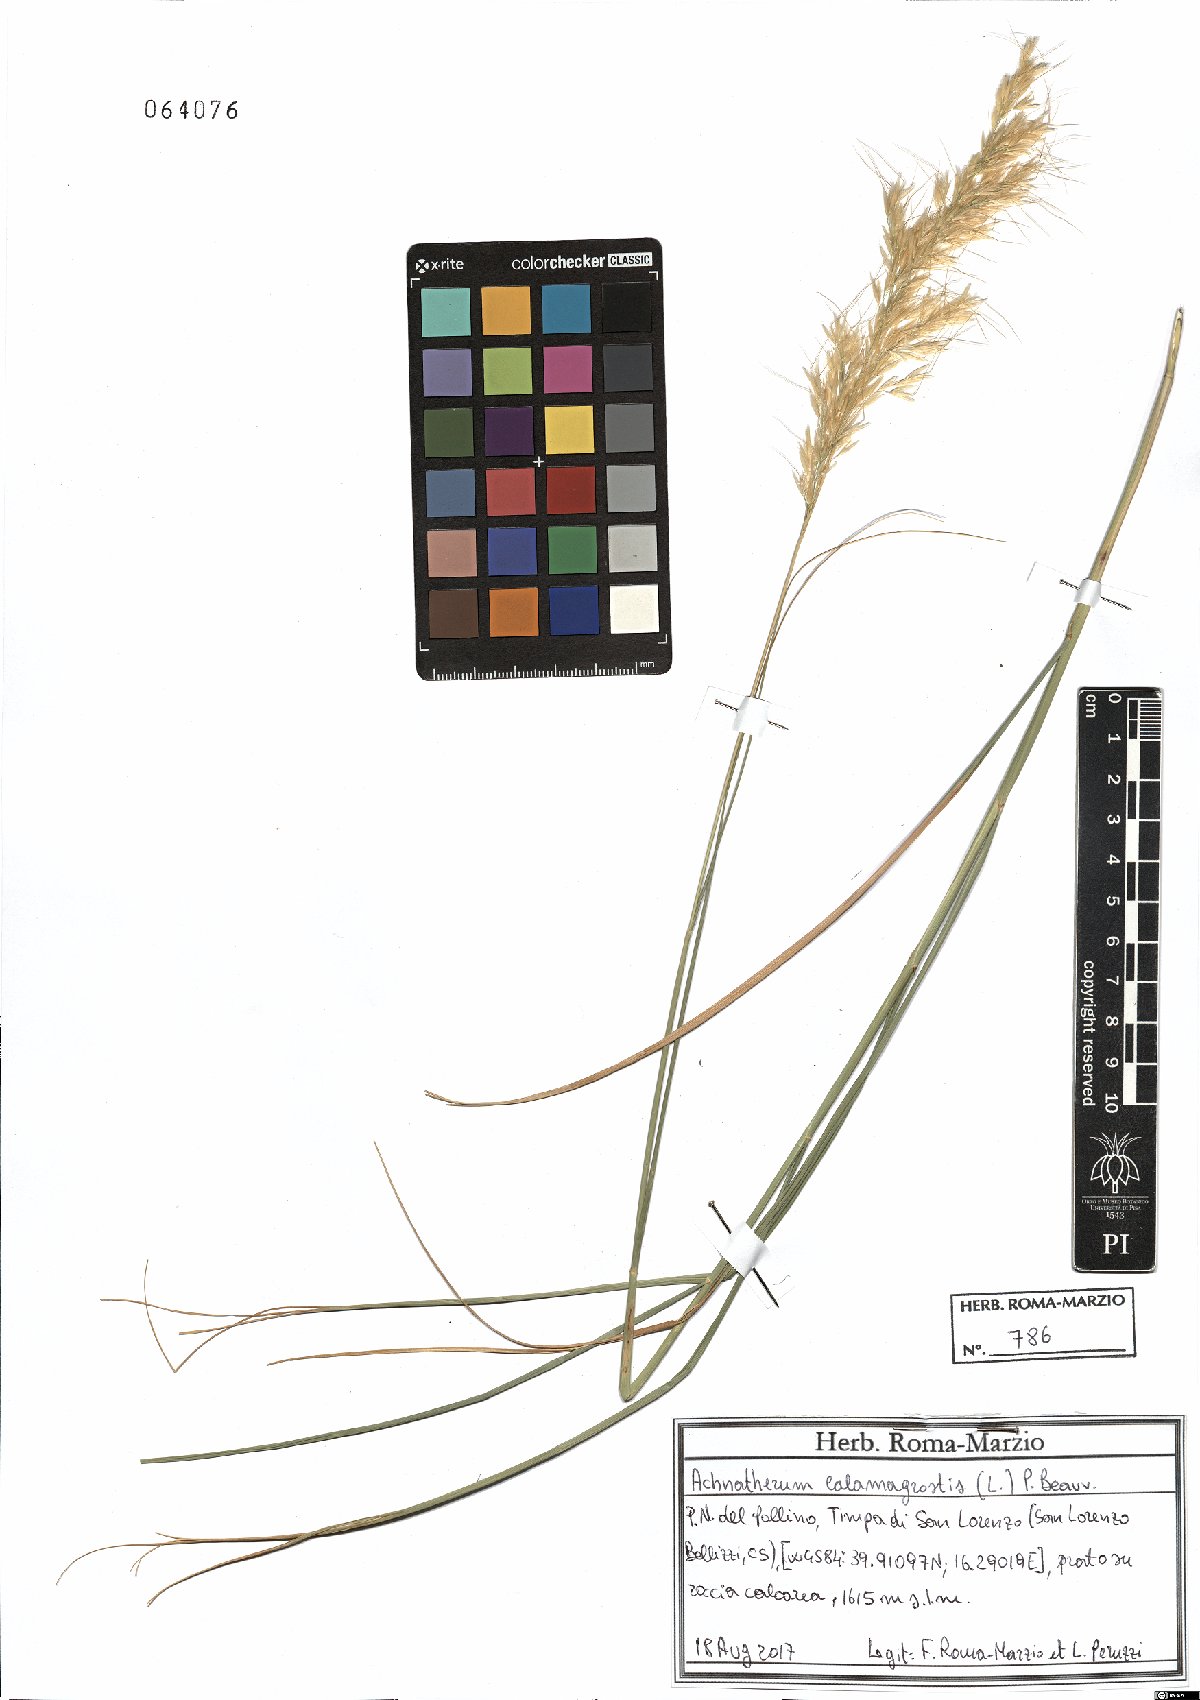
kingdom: Plantae
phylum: Tracheophyta
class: Liliopsida
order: Poales
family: Poaceae
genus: Achnatherum
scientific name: Achnatherum calamagrostis
